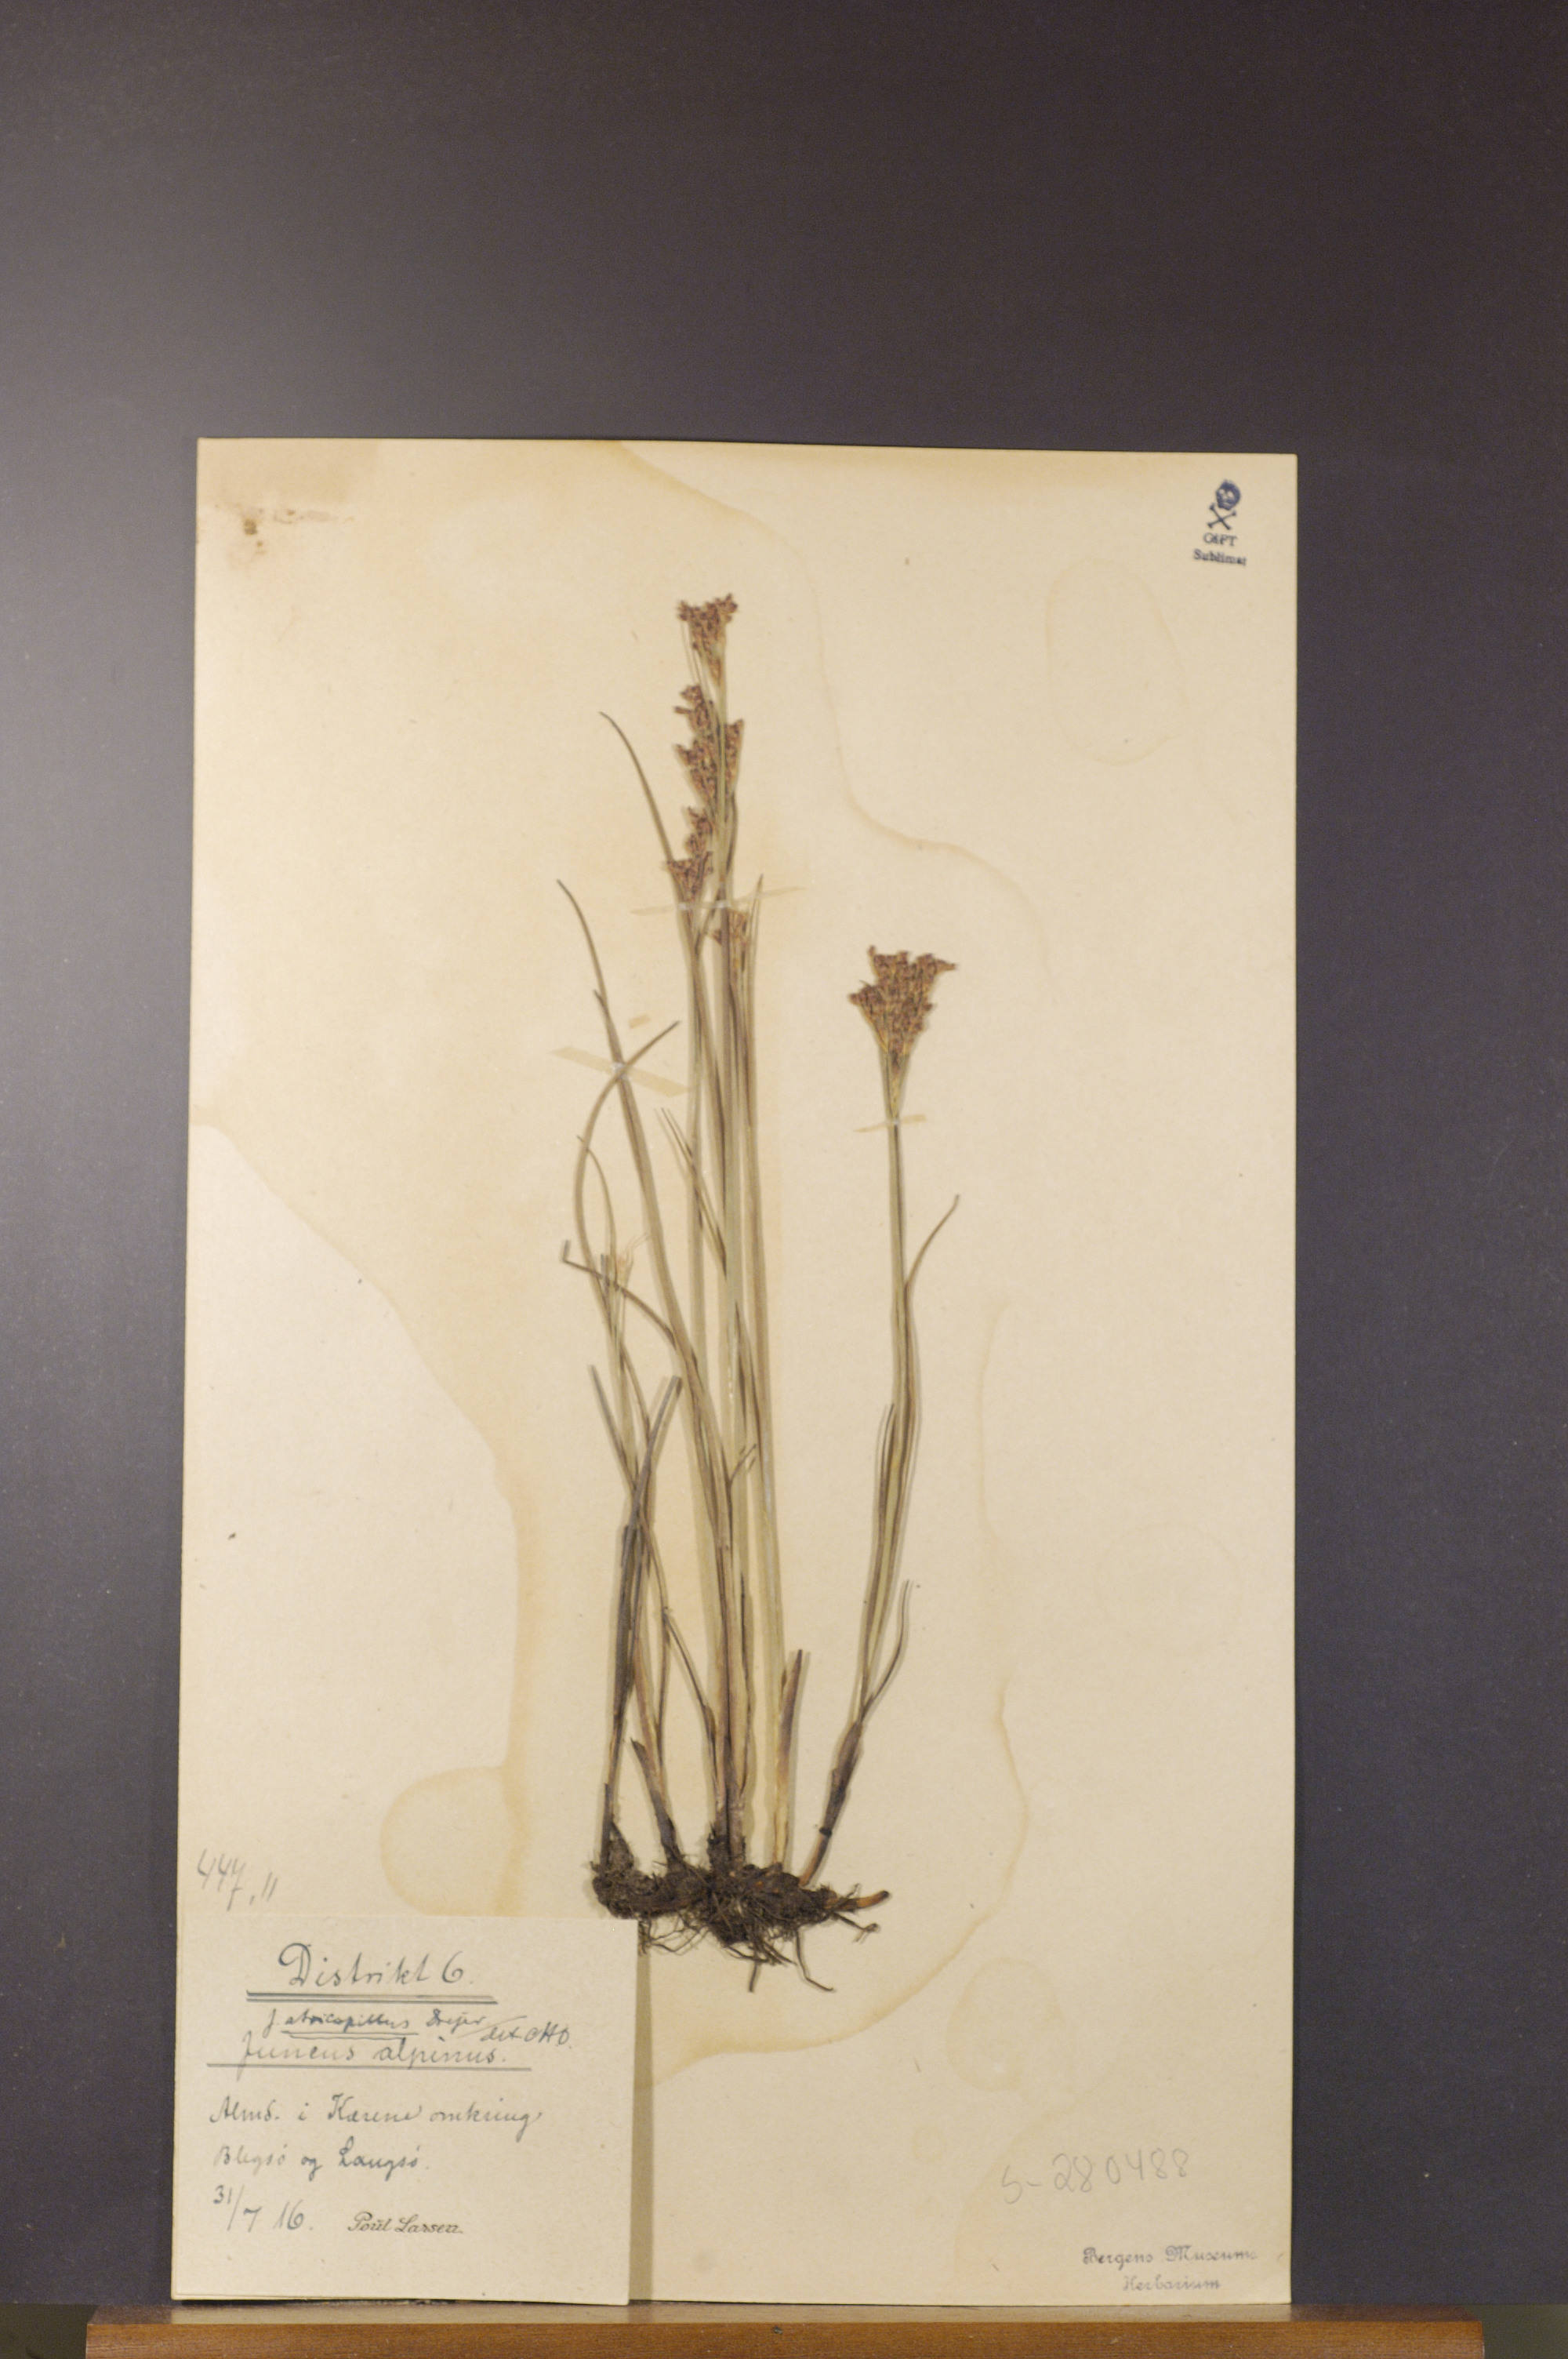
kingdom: Plantae
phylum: Tracheophyta
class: Liliopsida
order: Poales
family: Juncaceae
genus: Juncus
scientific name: Juncus alpinoarticulatus
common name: Alpine rush
